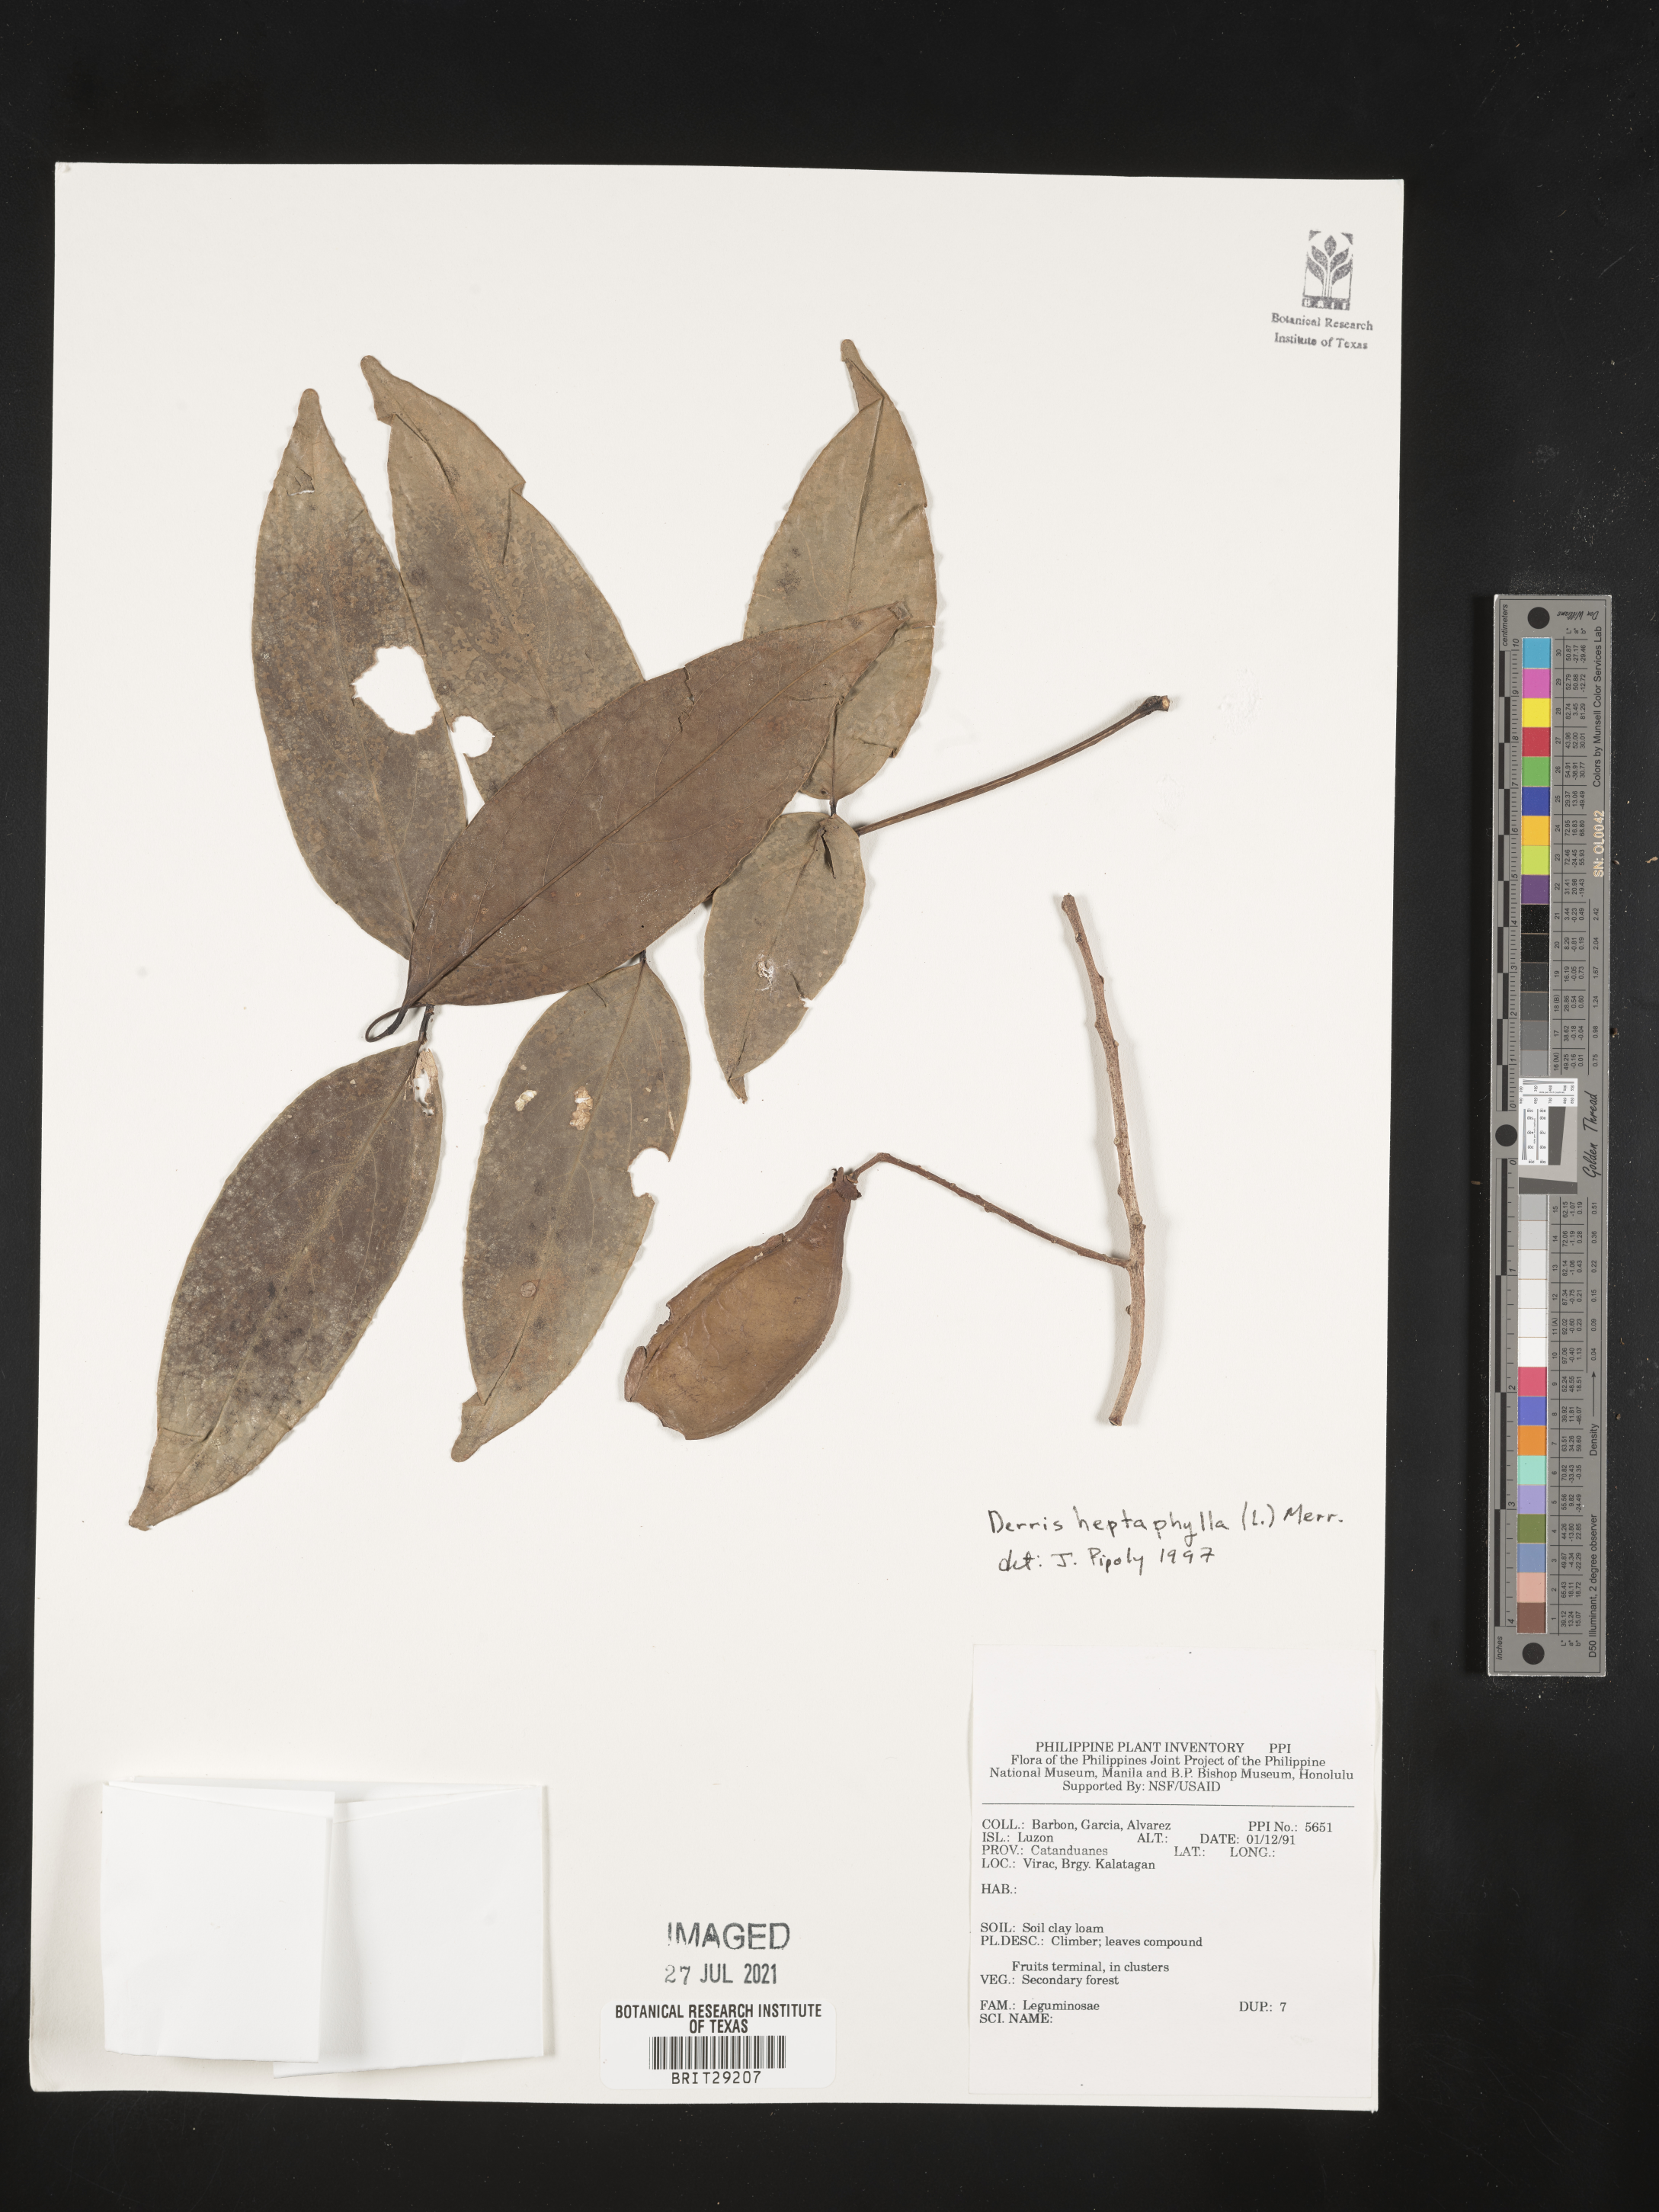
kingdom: Plantae
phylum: Tracheophyta
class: Magnoliopsida
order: Fabales
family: Fabaceae
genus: Aganope
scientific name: Aganope heptaphylla
